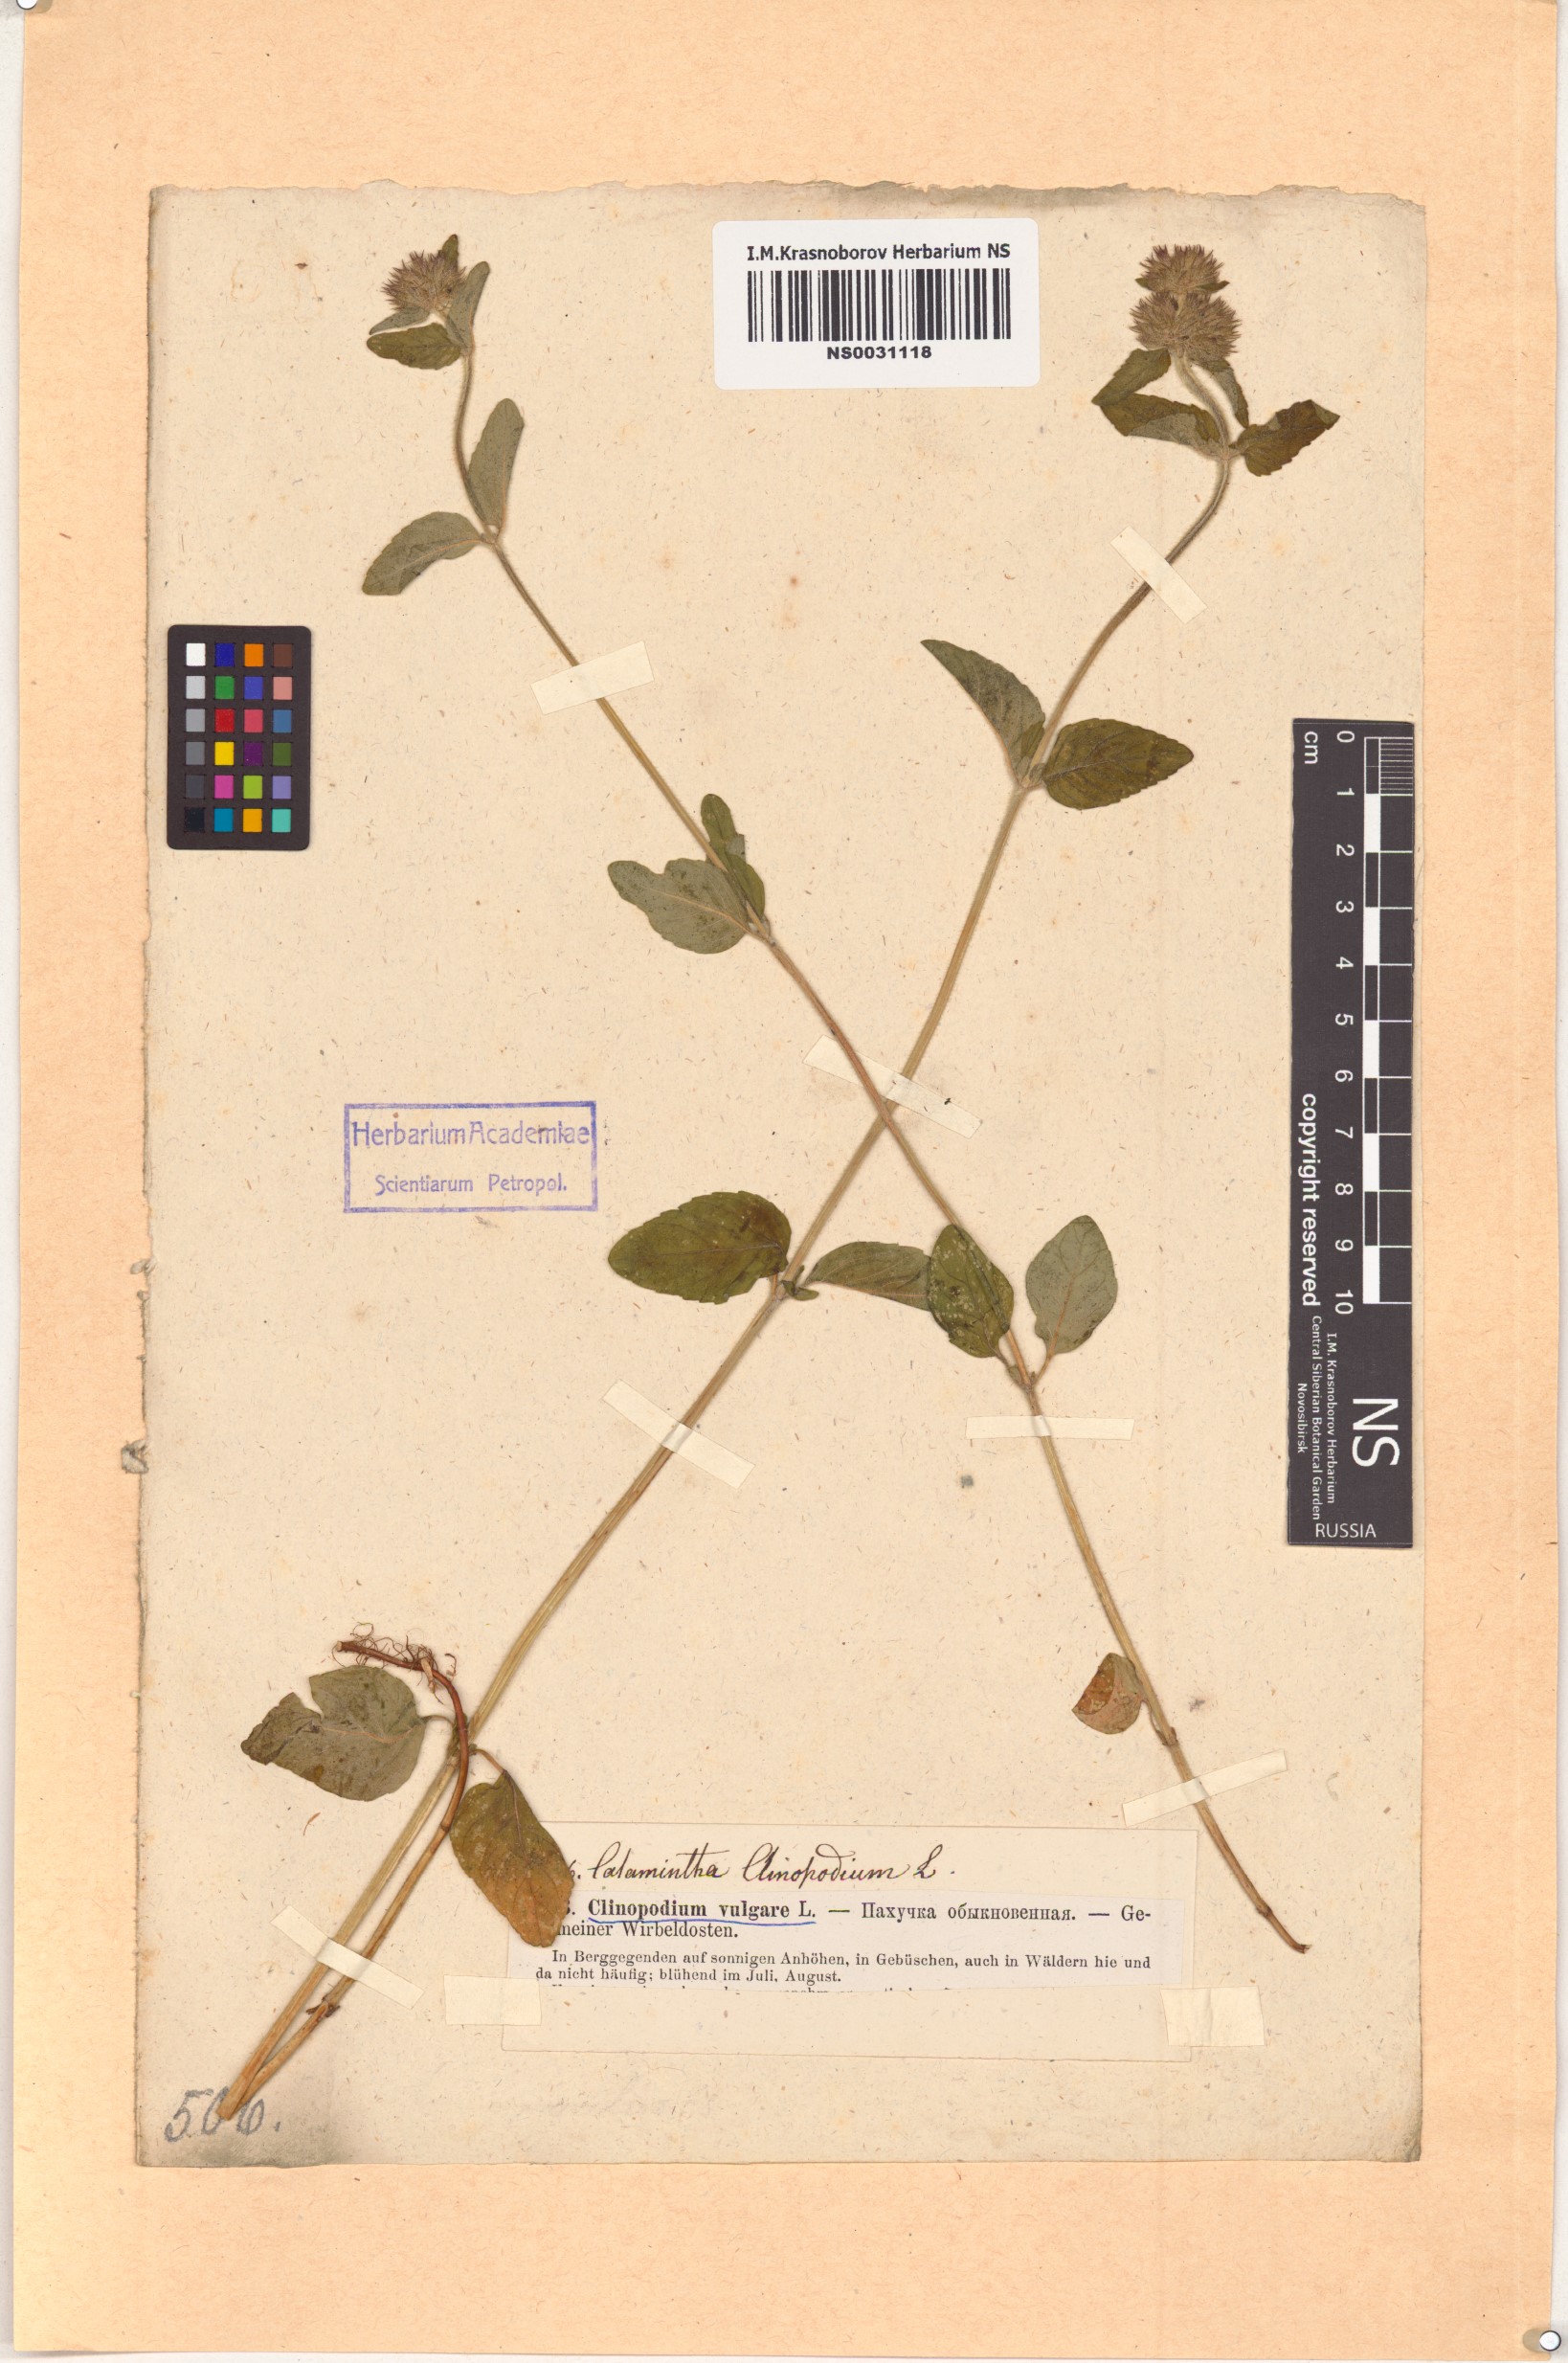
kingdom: Plantae
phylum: Tracheophyta
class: Magnoliopsida
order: Lamiales
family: Lamiaceae
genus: Clinopodium
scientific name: Clinopodium vulgare
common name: Wild basil
